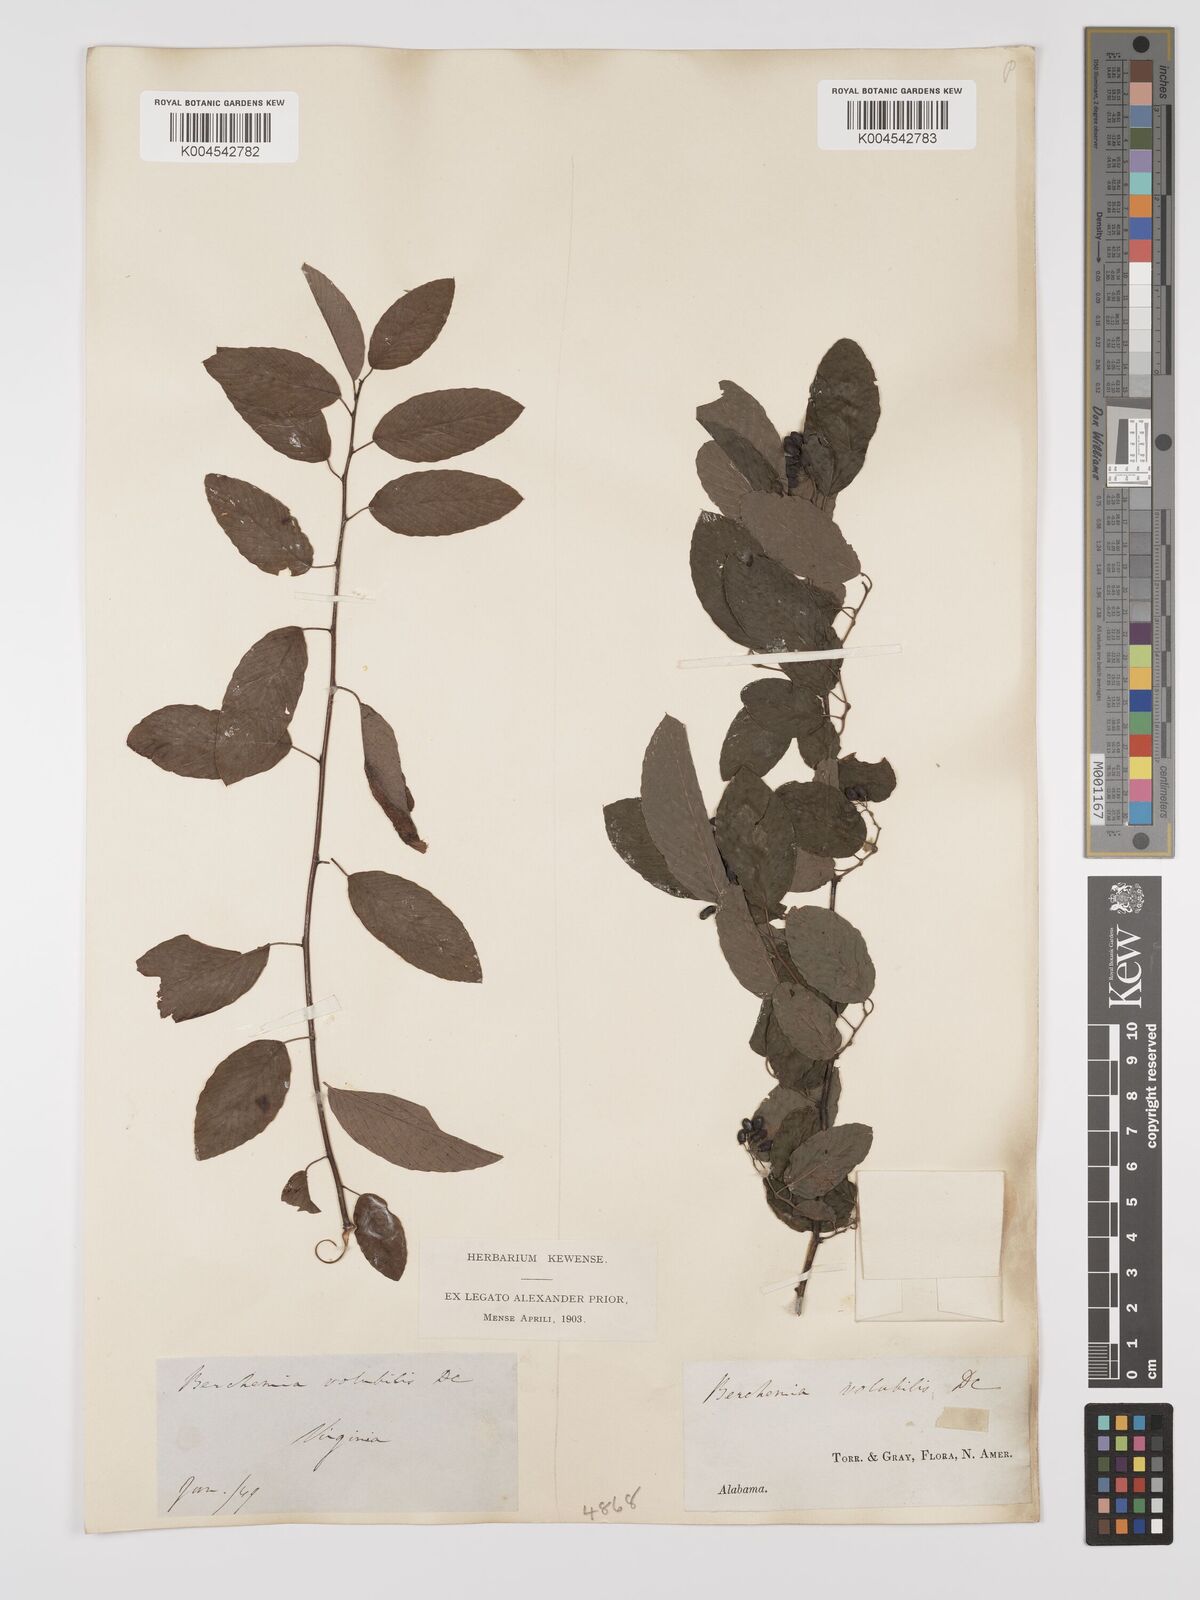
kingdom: Plantae
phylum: Tracheophyta
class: Magnoliopsida
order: Rosales
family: Rhamnaceae
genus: Berchemia
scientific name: Berchemia scandens
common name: Supplejack
